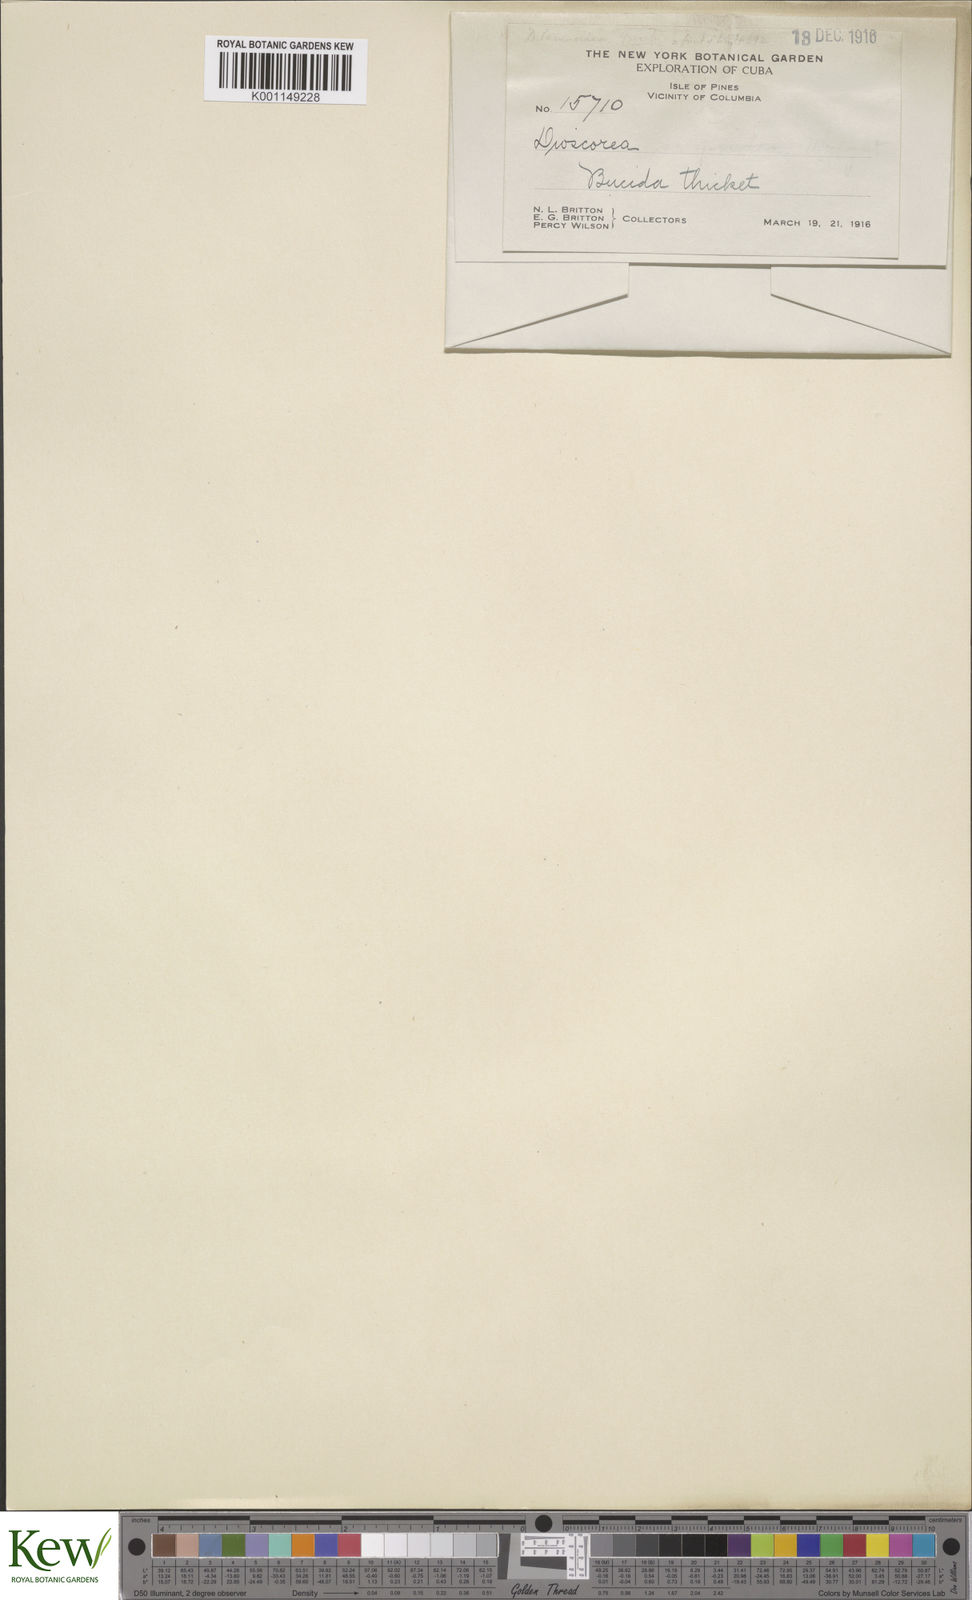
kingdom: Plantae
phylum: Tracheophyta
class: Liliopsida
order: Dioscoreales
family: Dioscoreaceae
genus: Dioscorea
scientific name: Dioscorea tamoidea
